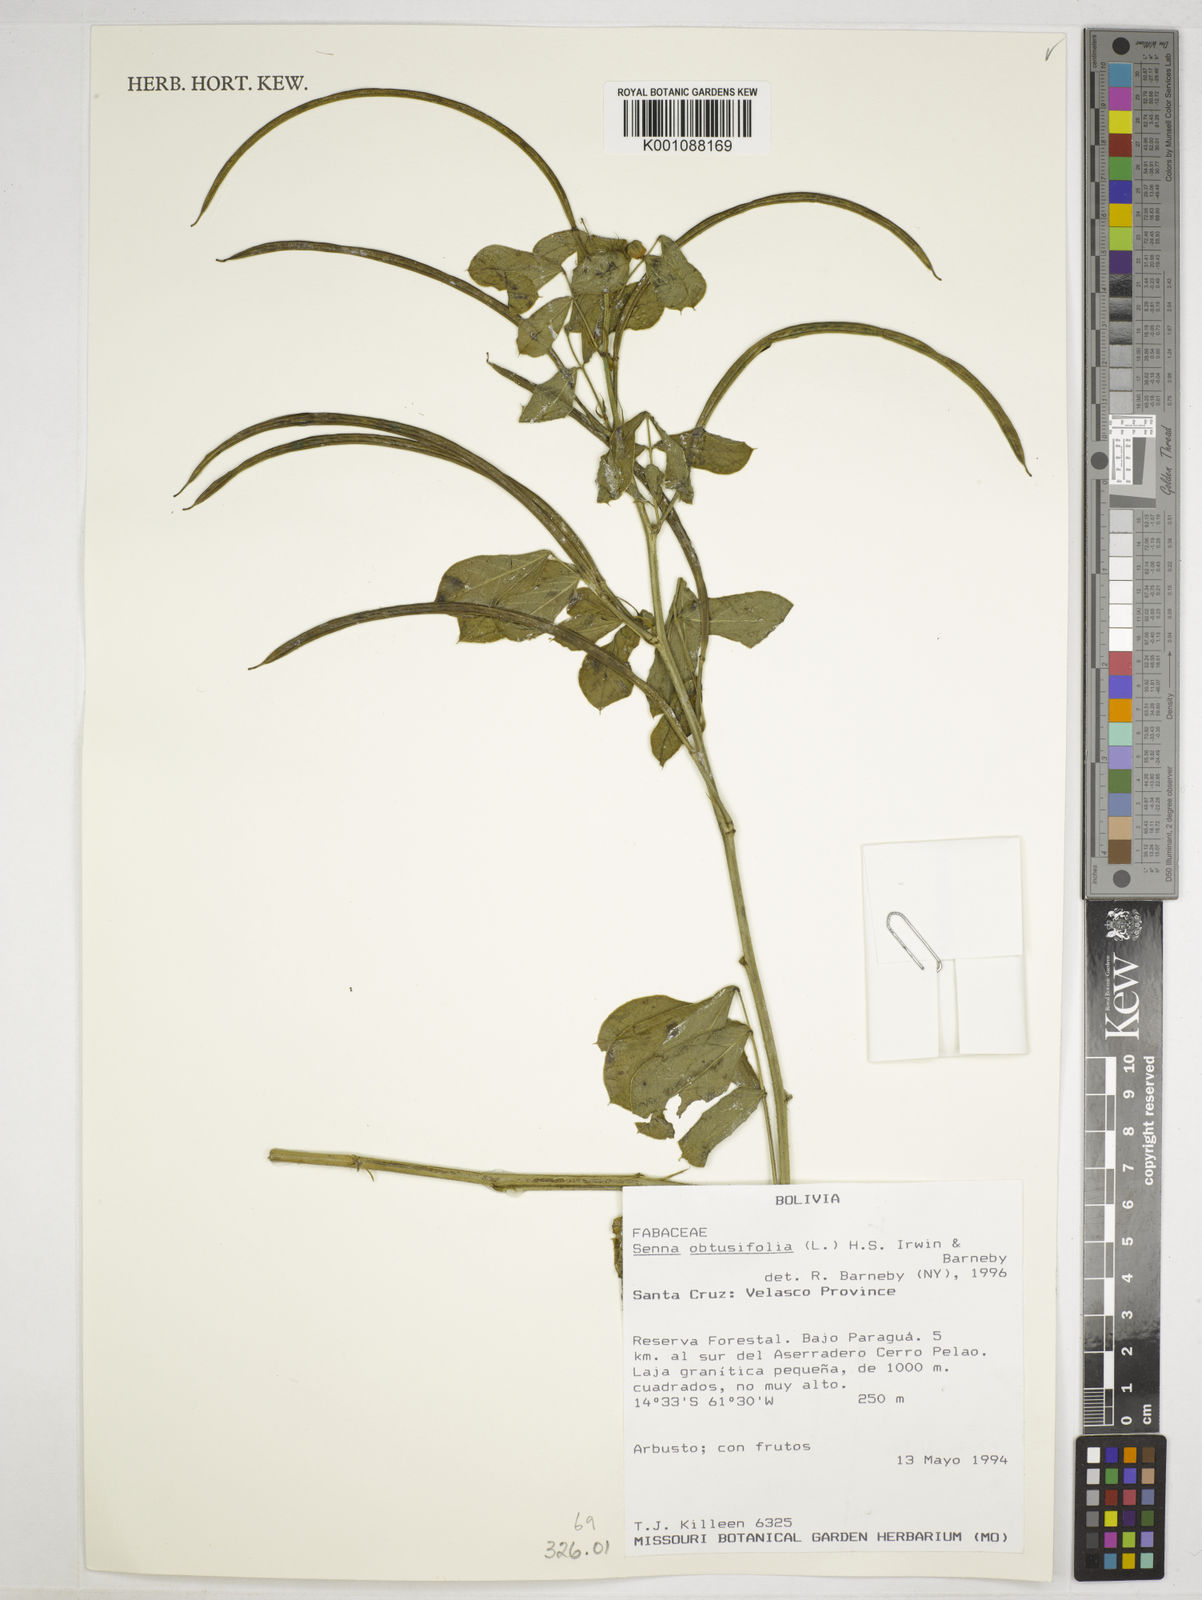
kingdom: Plantae
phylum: Tracheophyta
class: Magnoliopsida
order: Fabales
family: Fabaceae
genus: Senna
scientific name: Senna obtusifolia
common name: Java-bean
